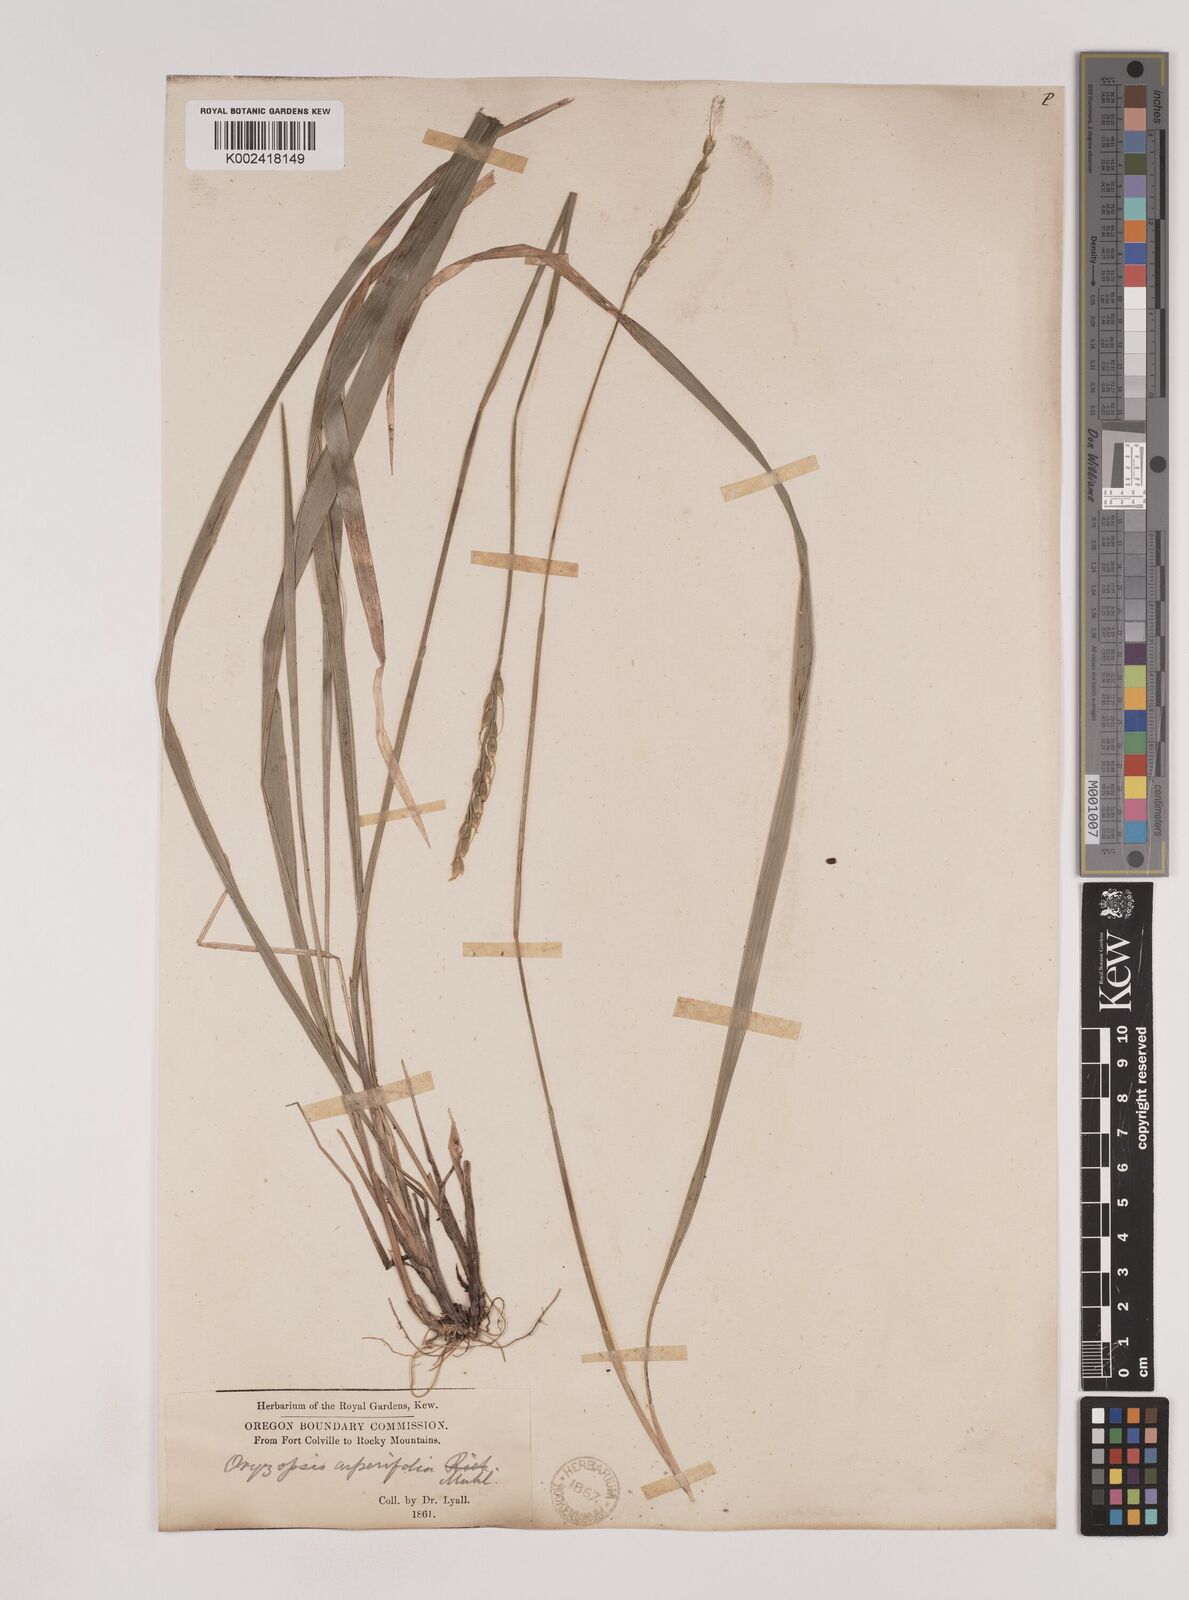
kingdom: Plantae
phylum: Tracheophyta
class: Liliopsida
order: Poales
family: Poaceae
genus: Oryzopsis
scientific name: Oryzopsis asperifolia
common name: Rough-leaved mountain rice
